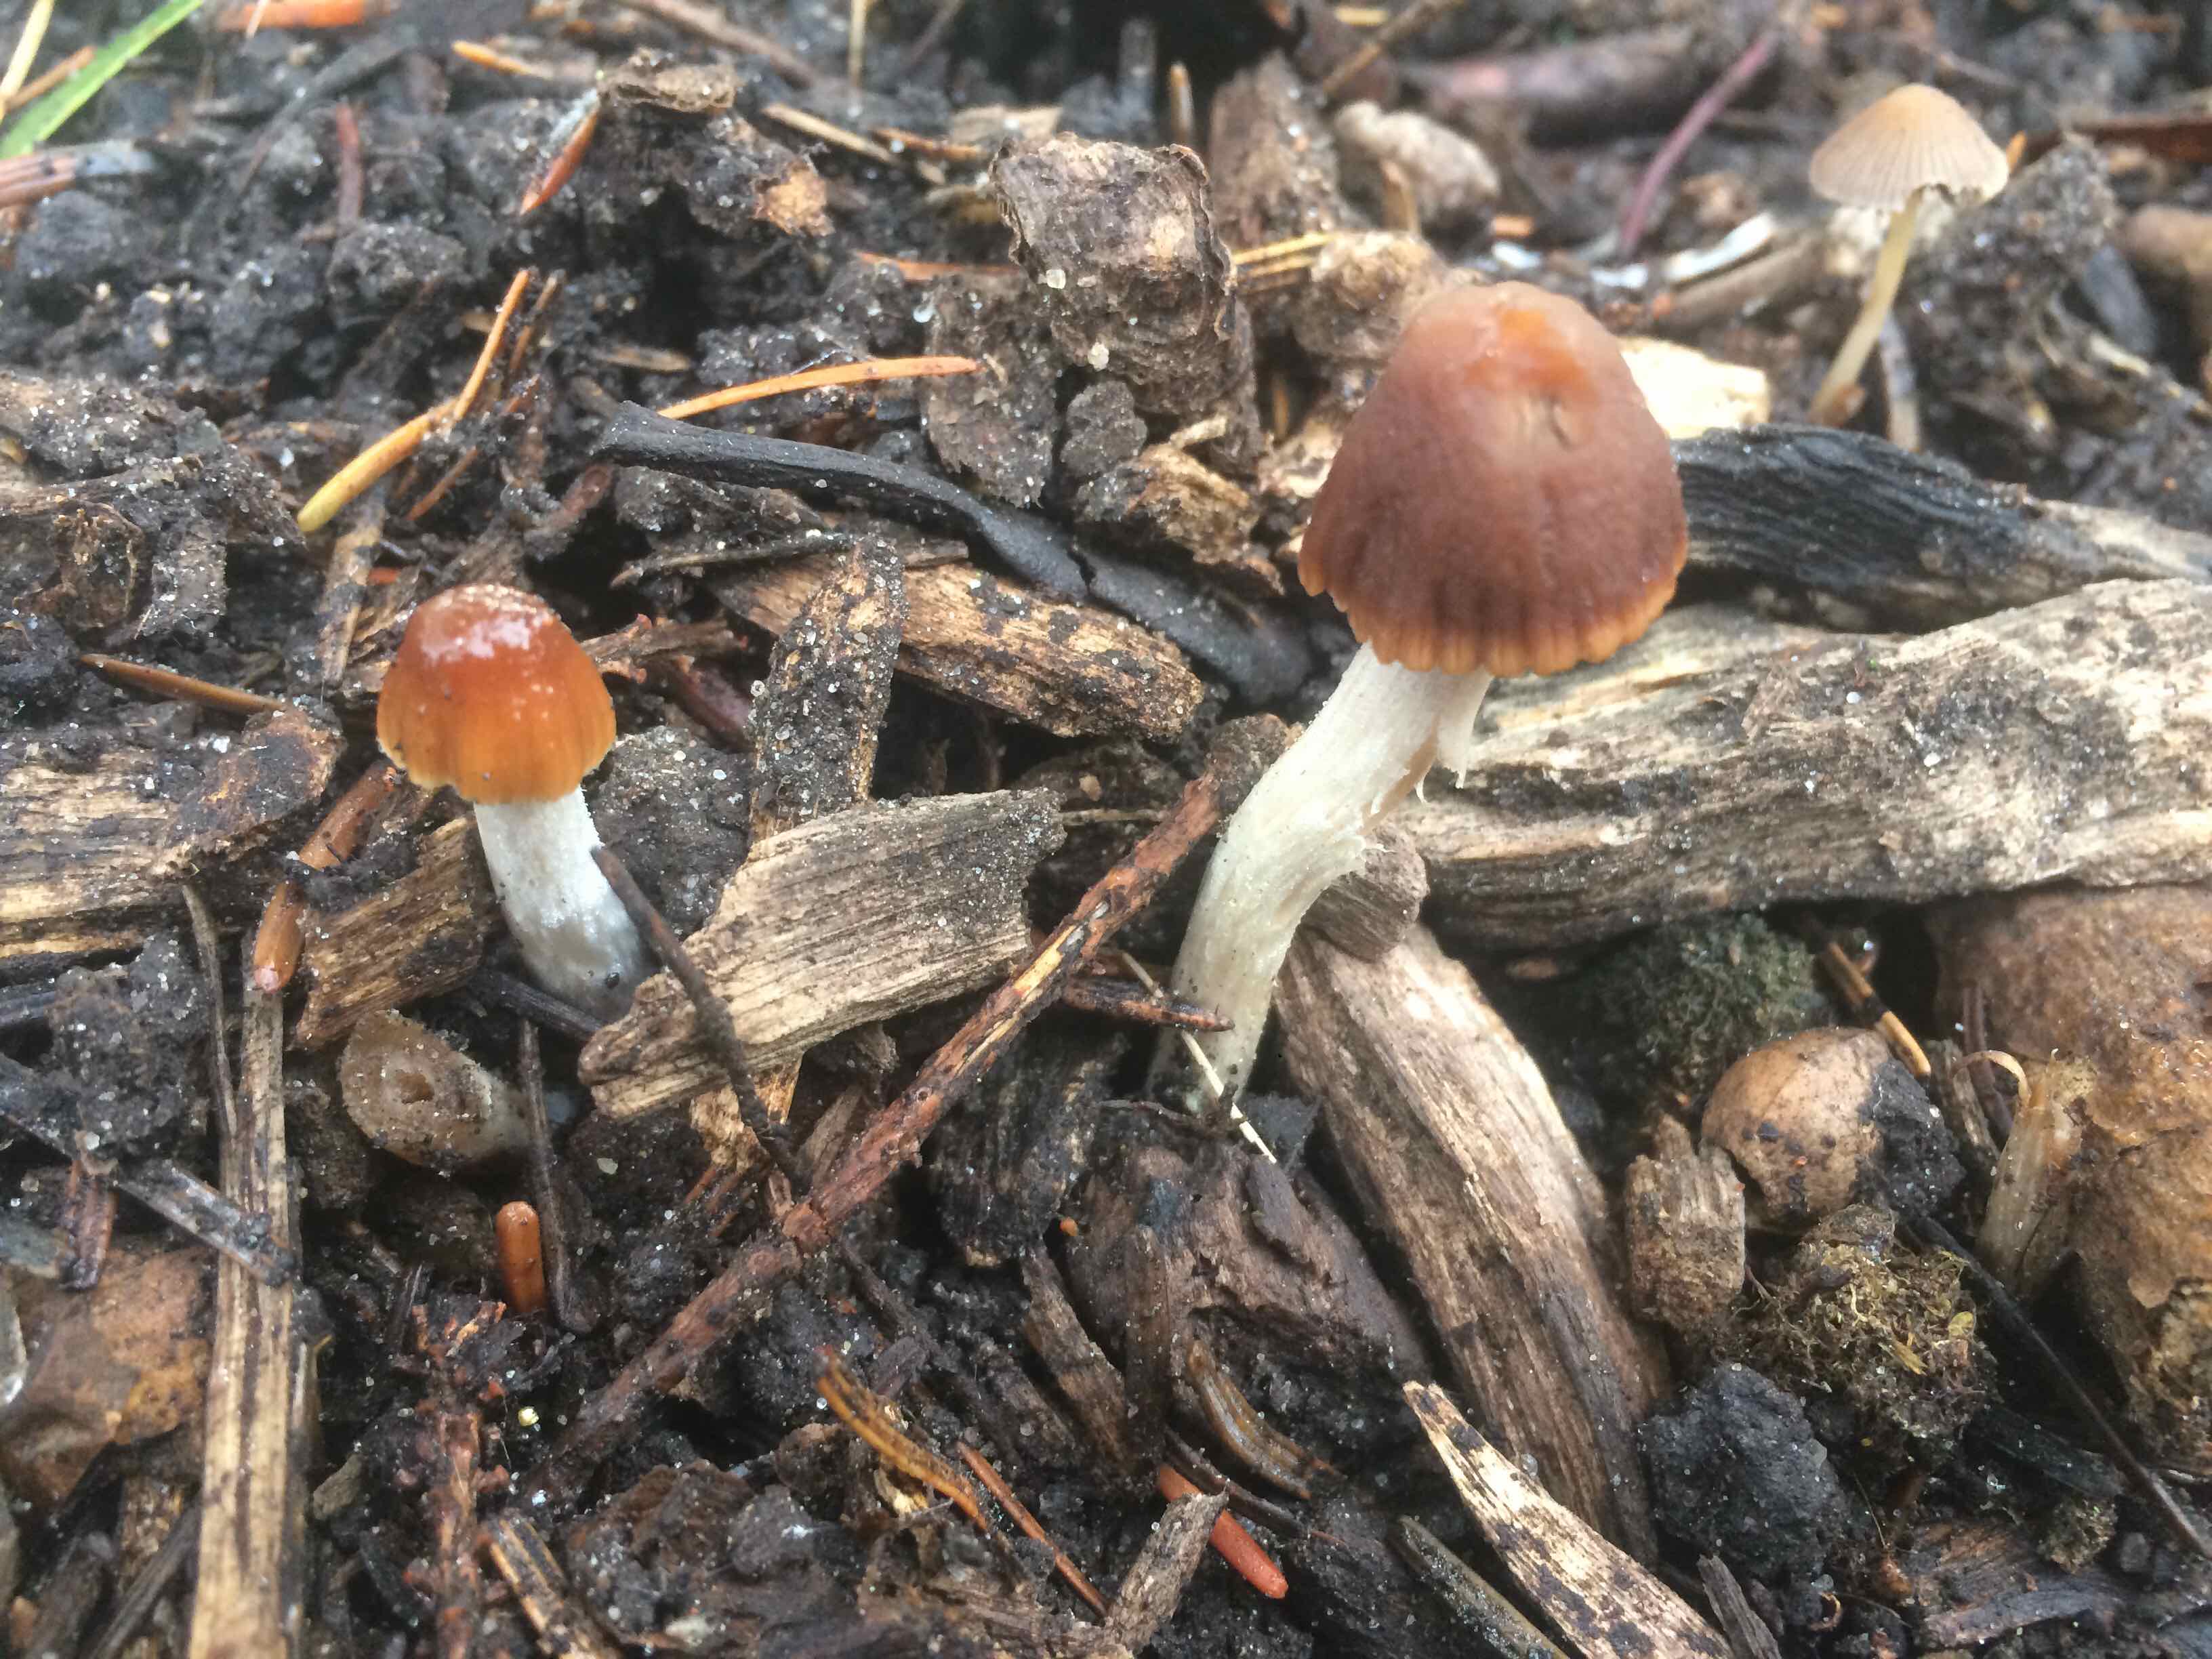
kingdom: Fungi
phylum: Basidiomycota
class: Agaricomycetes
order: Agaricales
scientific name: Agaricales
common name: champignonordenen
